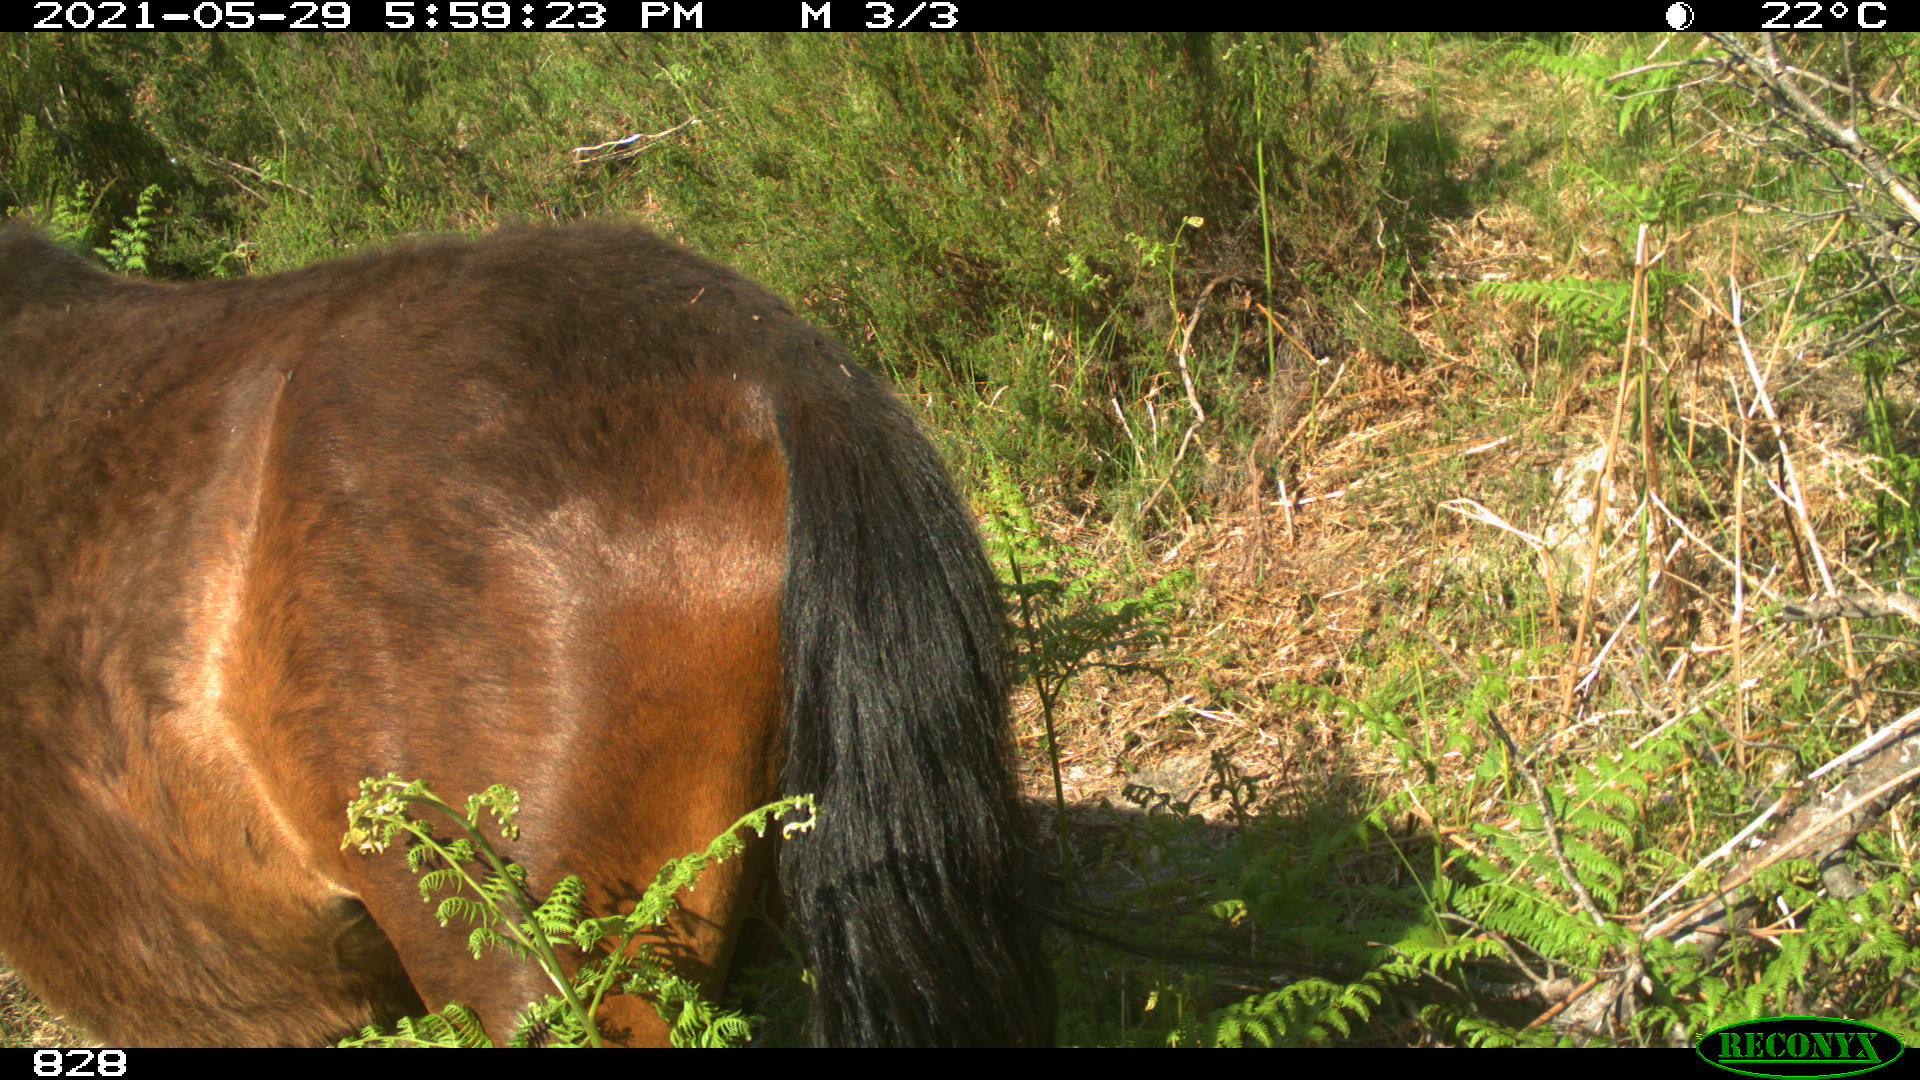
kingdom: Animalia
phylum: Chordata
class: Mammalia
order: Perissodactyla
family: Equidae
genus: Equus
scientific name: Equus caballus
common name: Horse
